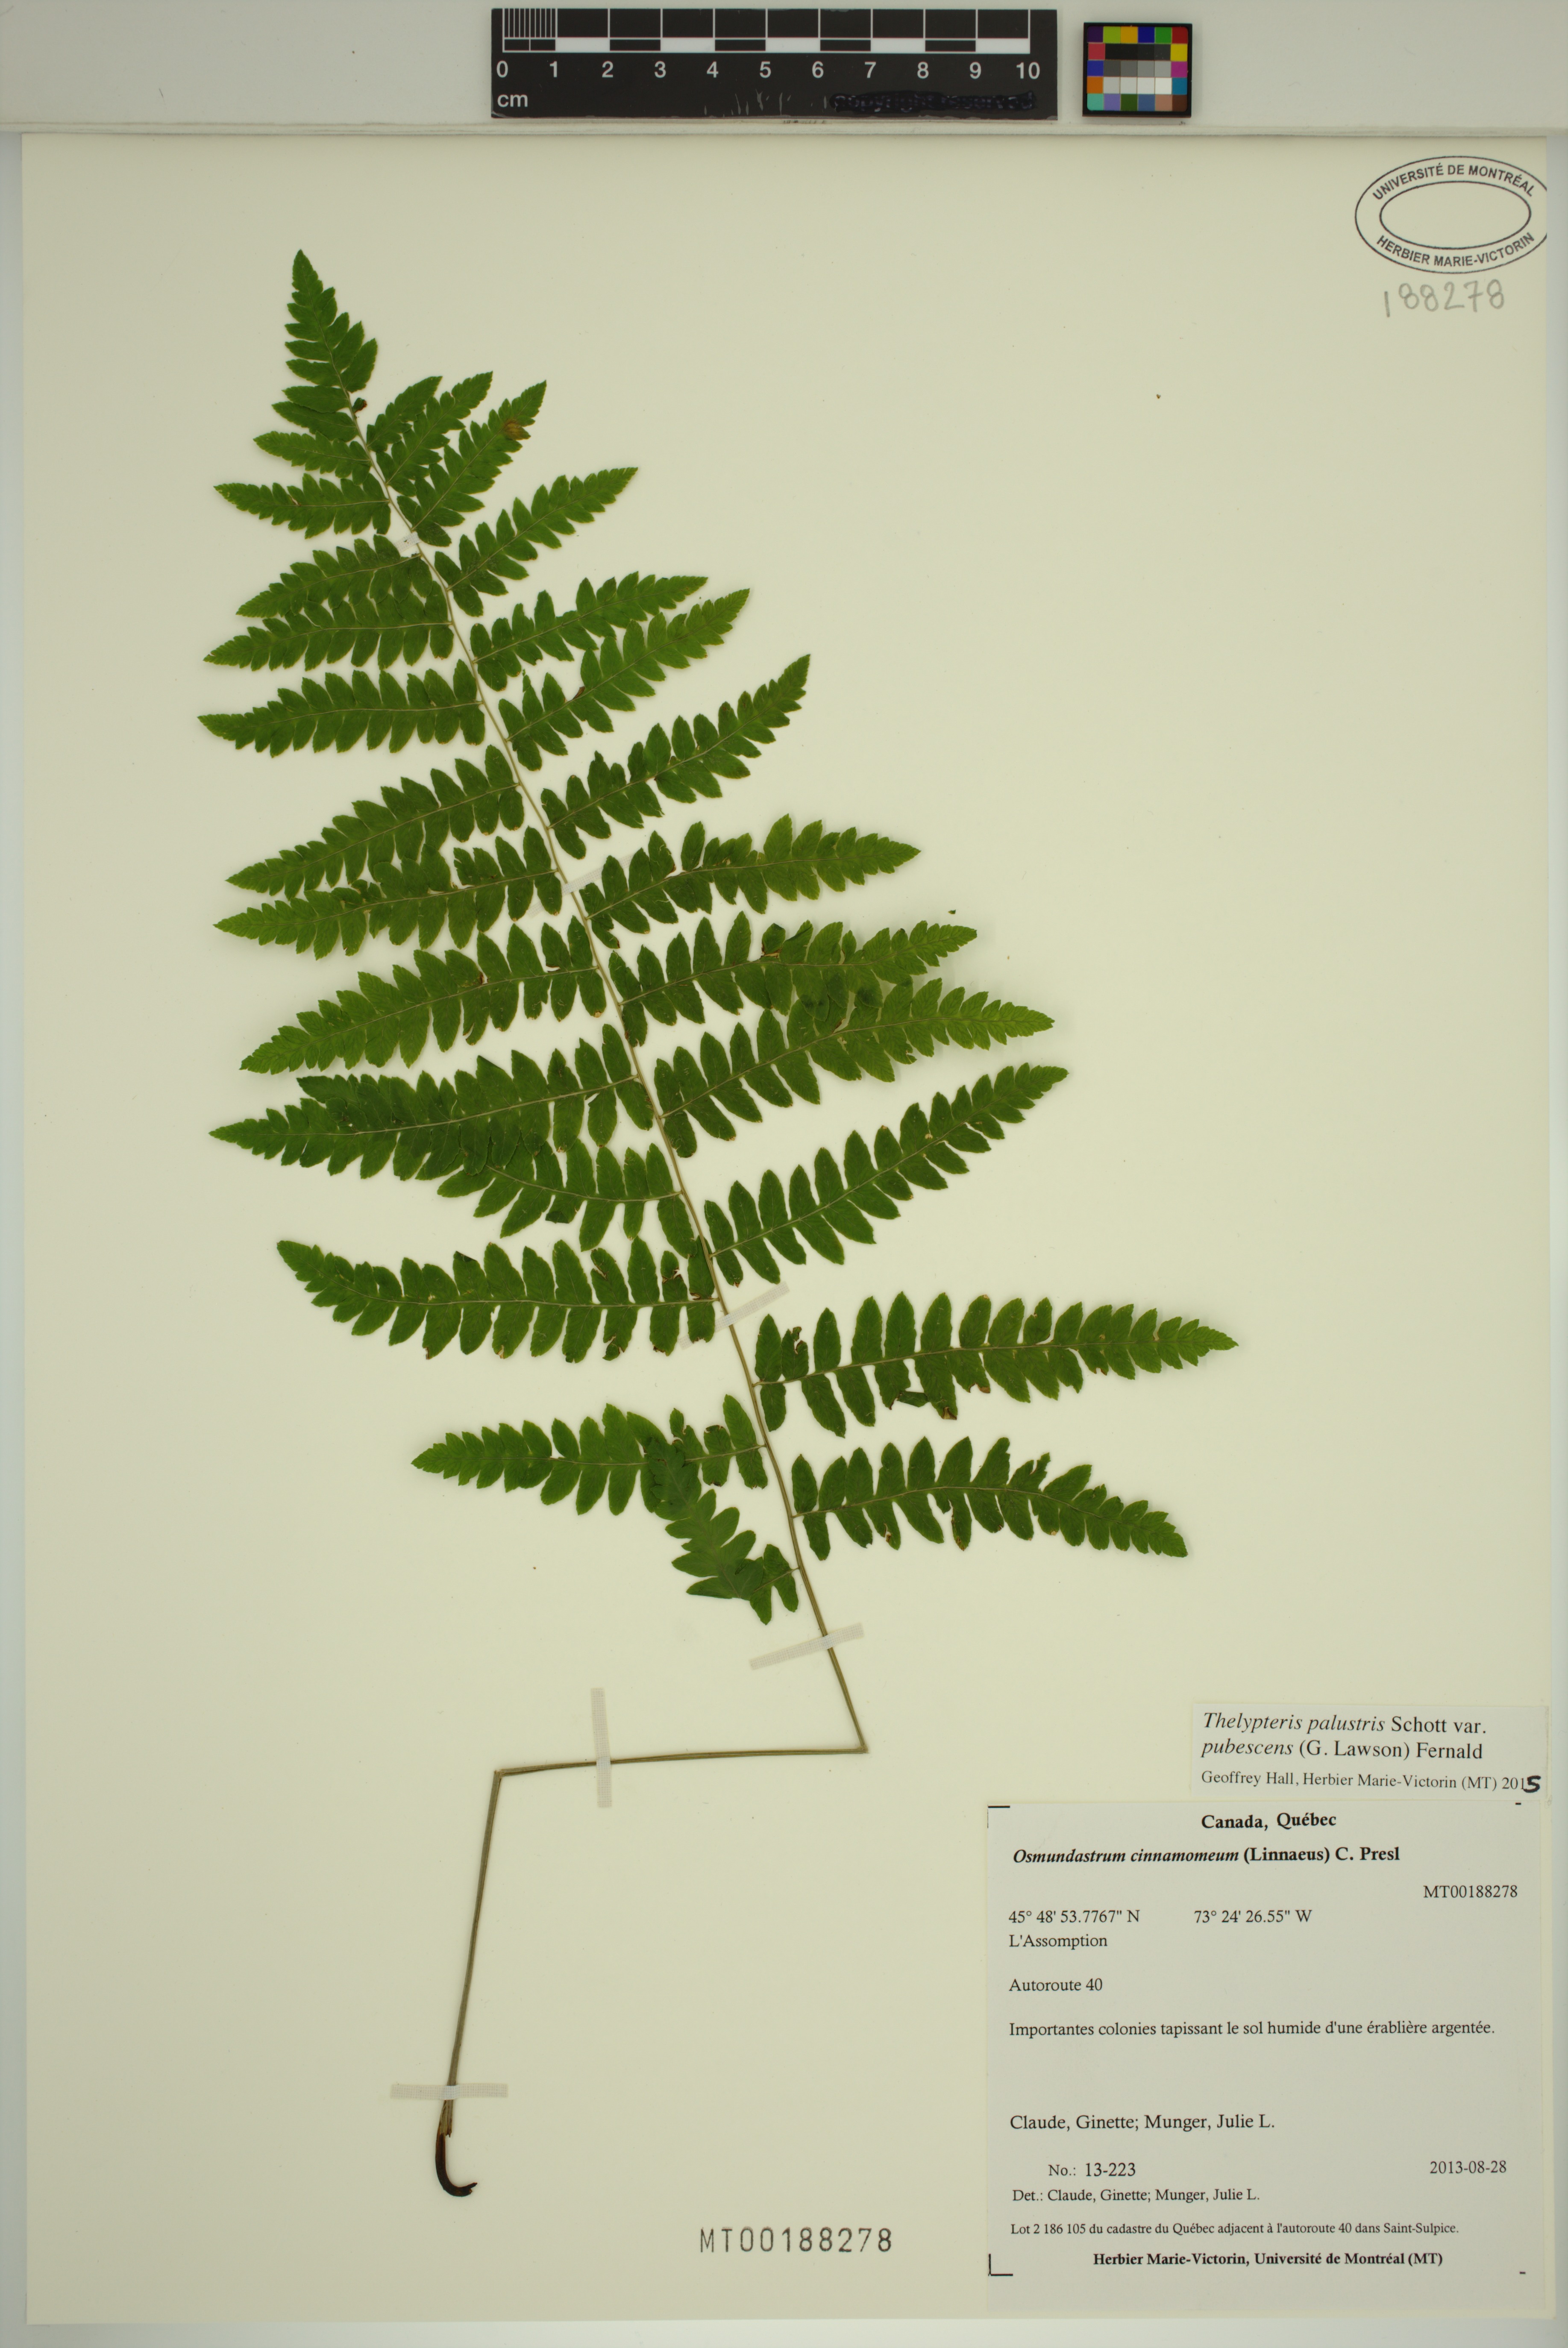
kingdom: Plantae
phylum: Tracheophyta
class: Polypodiopsida
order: Polypodiales
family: Thelypteridaceae
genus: Thelypteris
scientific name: Thelypteris palustris
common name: Marsh fern
